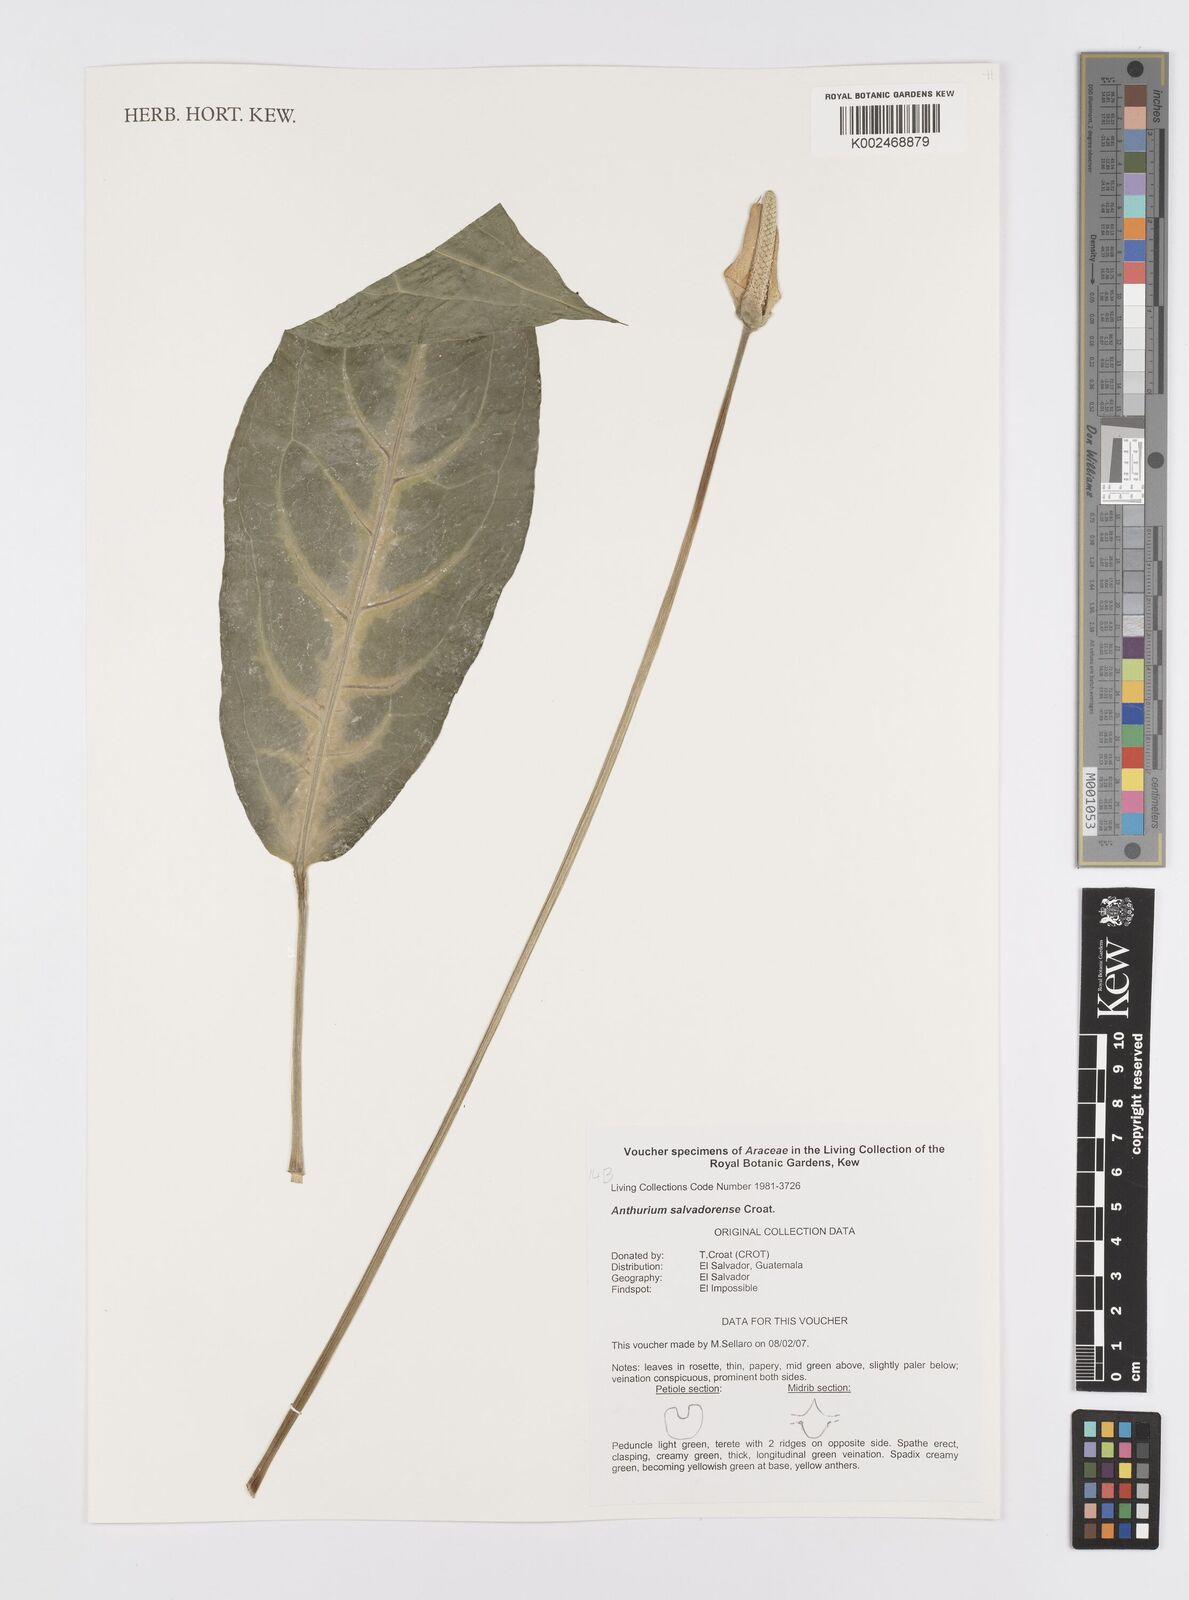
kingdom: Plantae
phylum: Tracheophyta
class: Liliopsida
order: Alismatales
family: Araceae
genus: Anthurium
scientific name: Anthurium salvadorense
